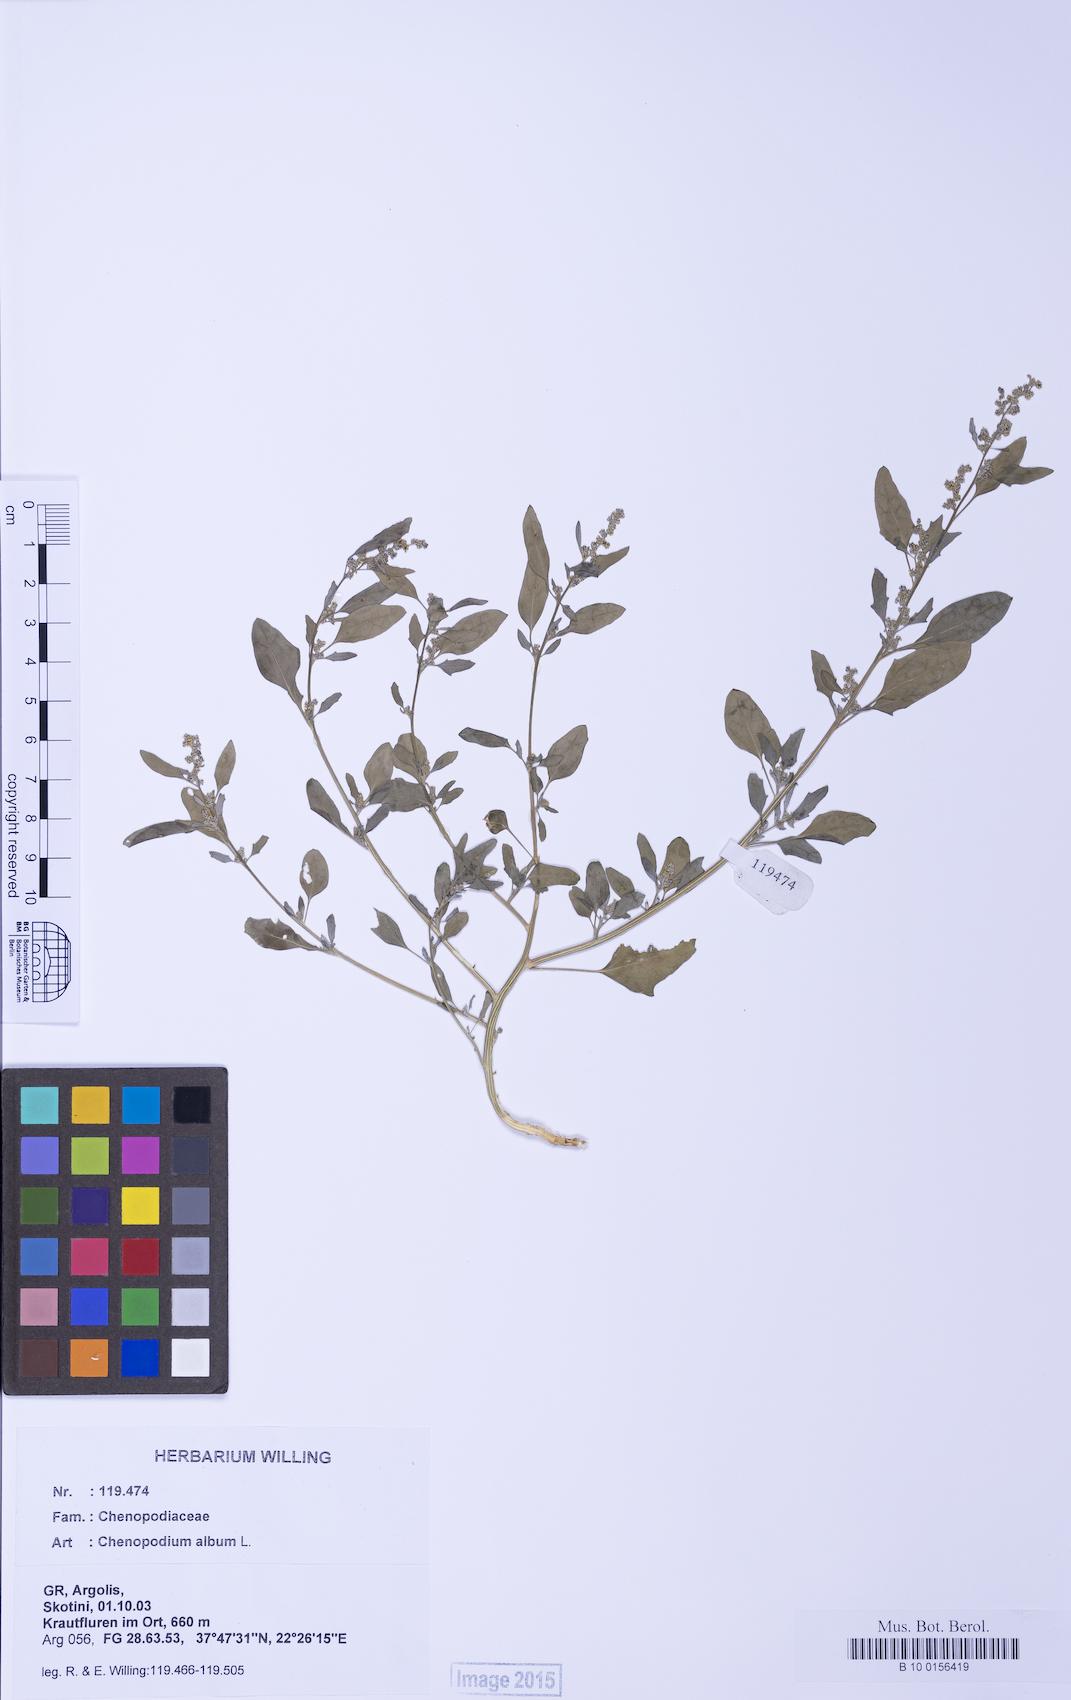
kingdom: Plantae
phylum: Tracheophyta
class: Magnoliopsida
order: Caryophyllales
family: Amaranthaceae
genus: Chenopodium
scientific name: Chenopodium striatiforme
